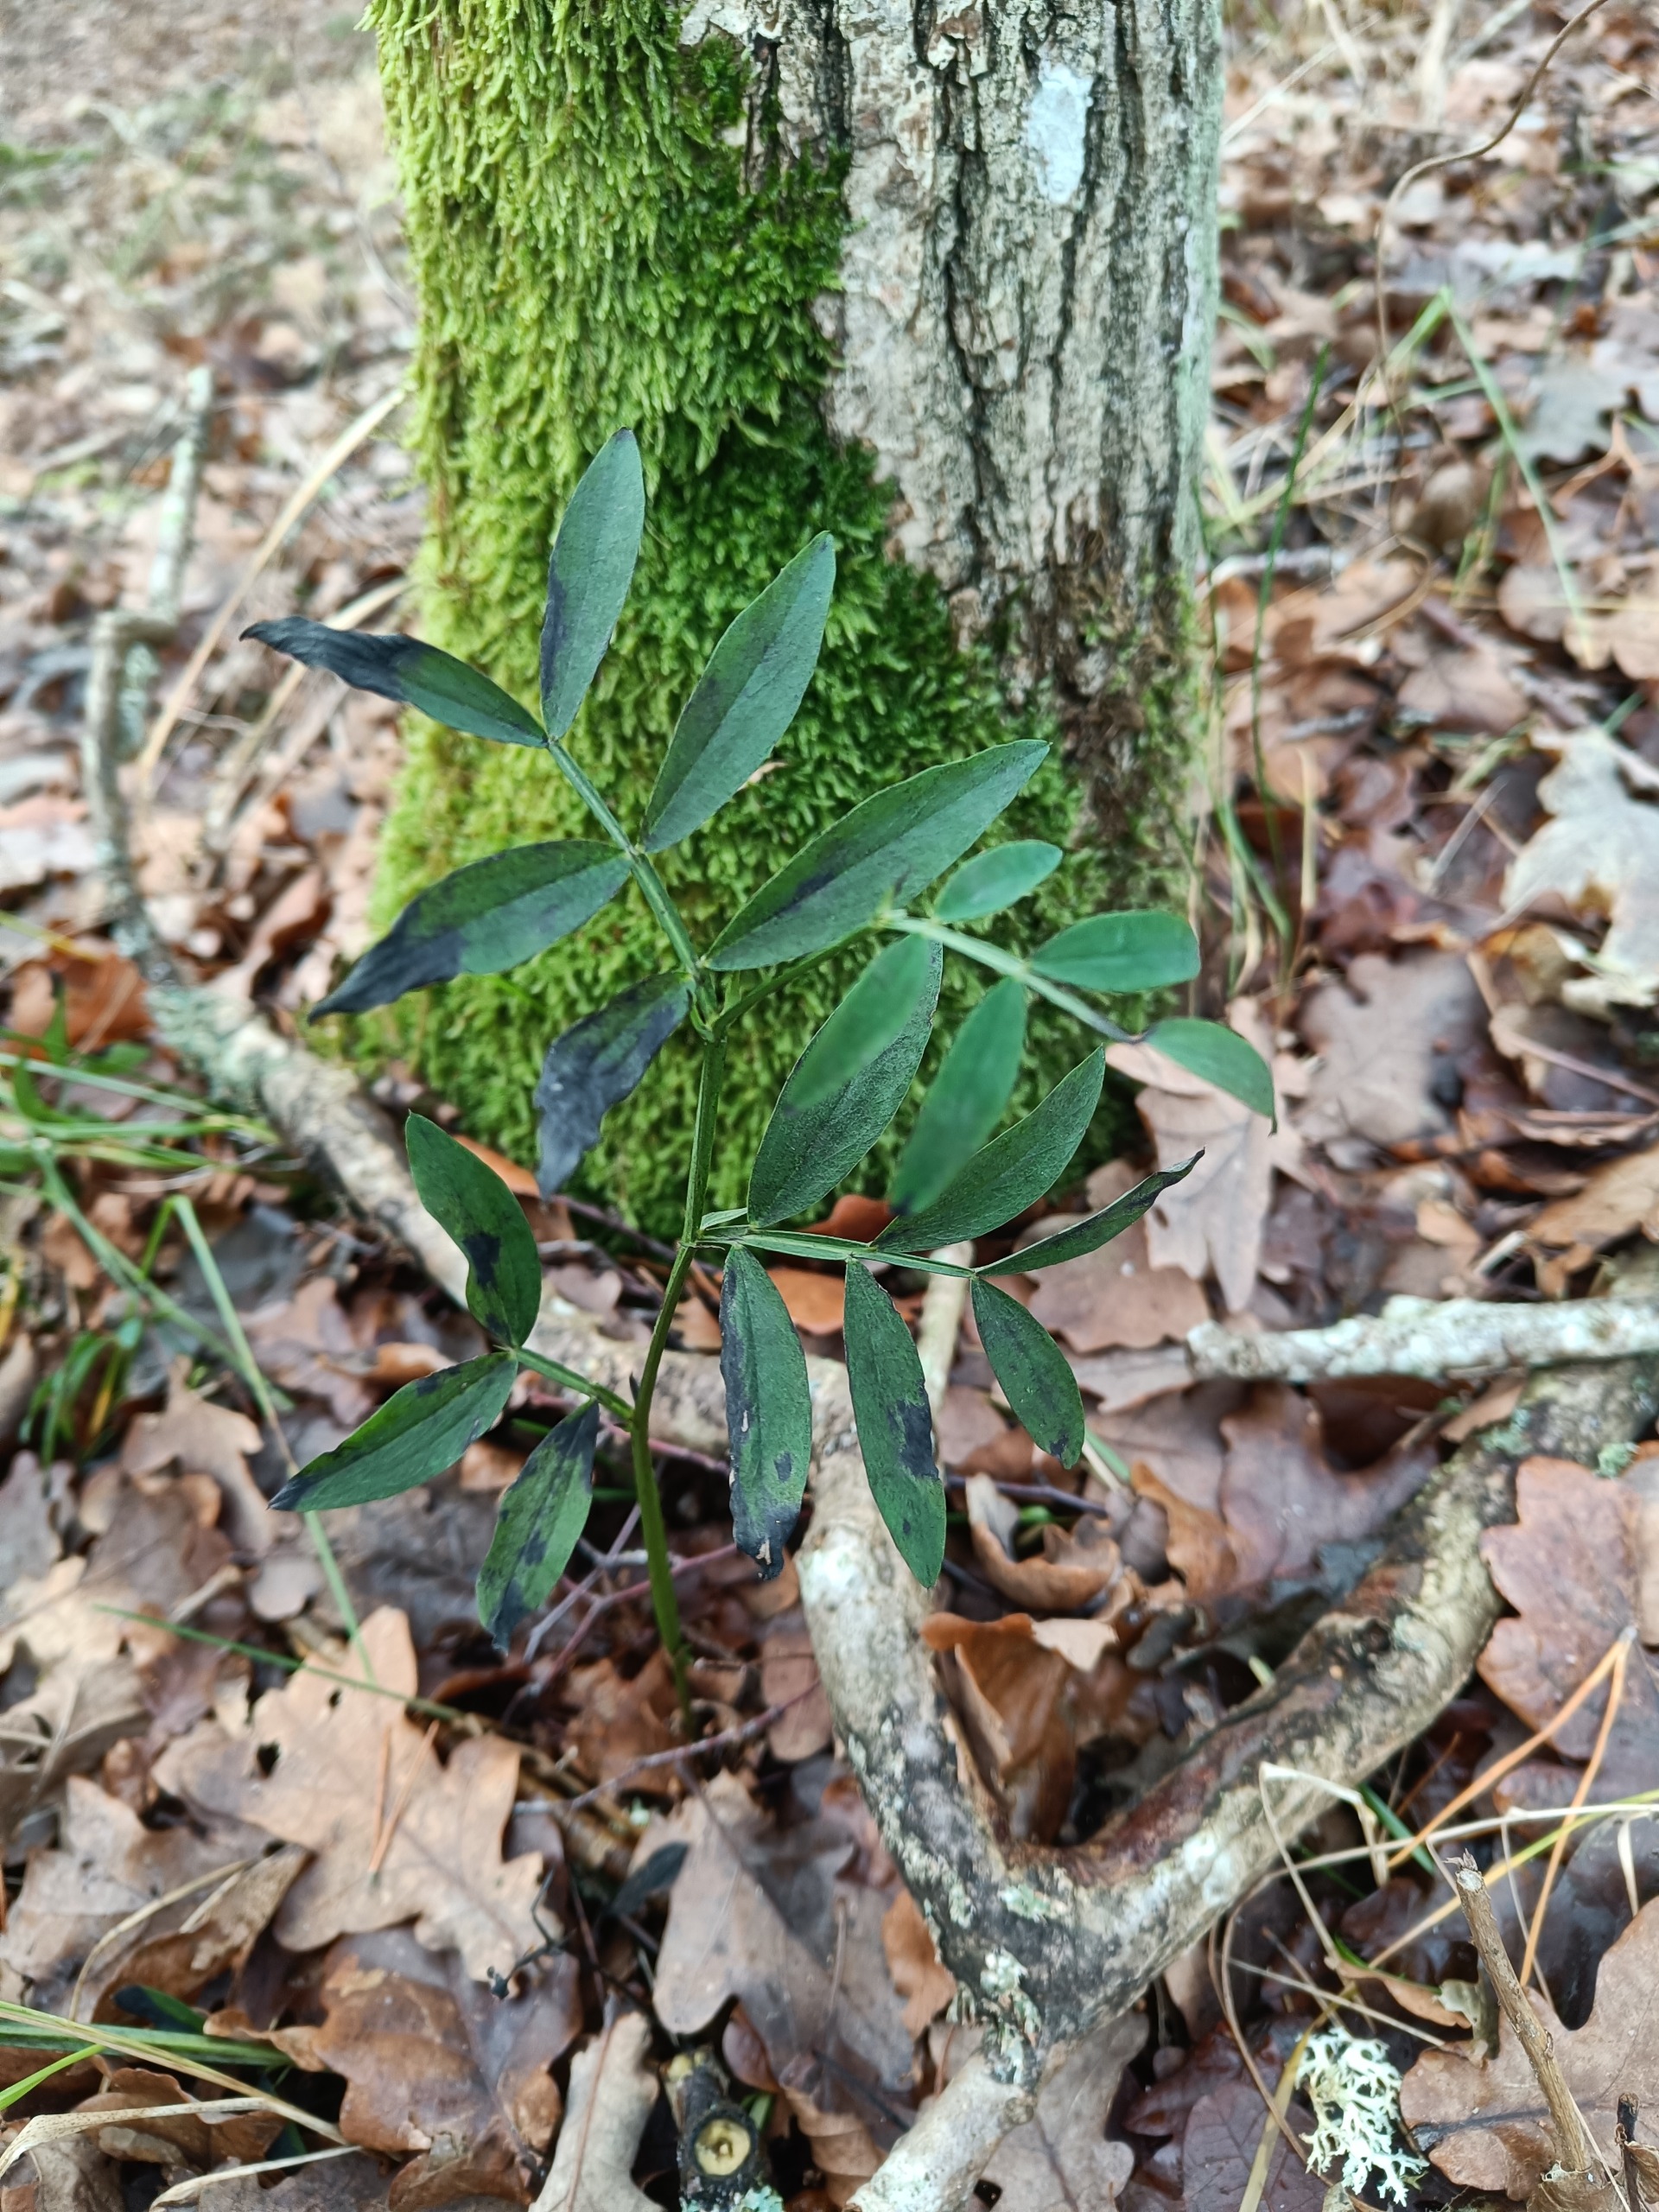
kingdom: Plantae
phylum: Tracheophyta
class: Magnoliopsida
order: Fabales
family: Fabaceae
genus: Lathyrus
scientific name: Lathyrus linifolius
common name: Krat-fladbælg
